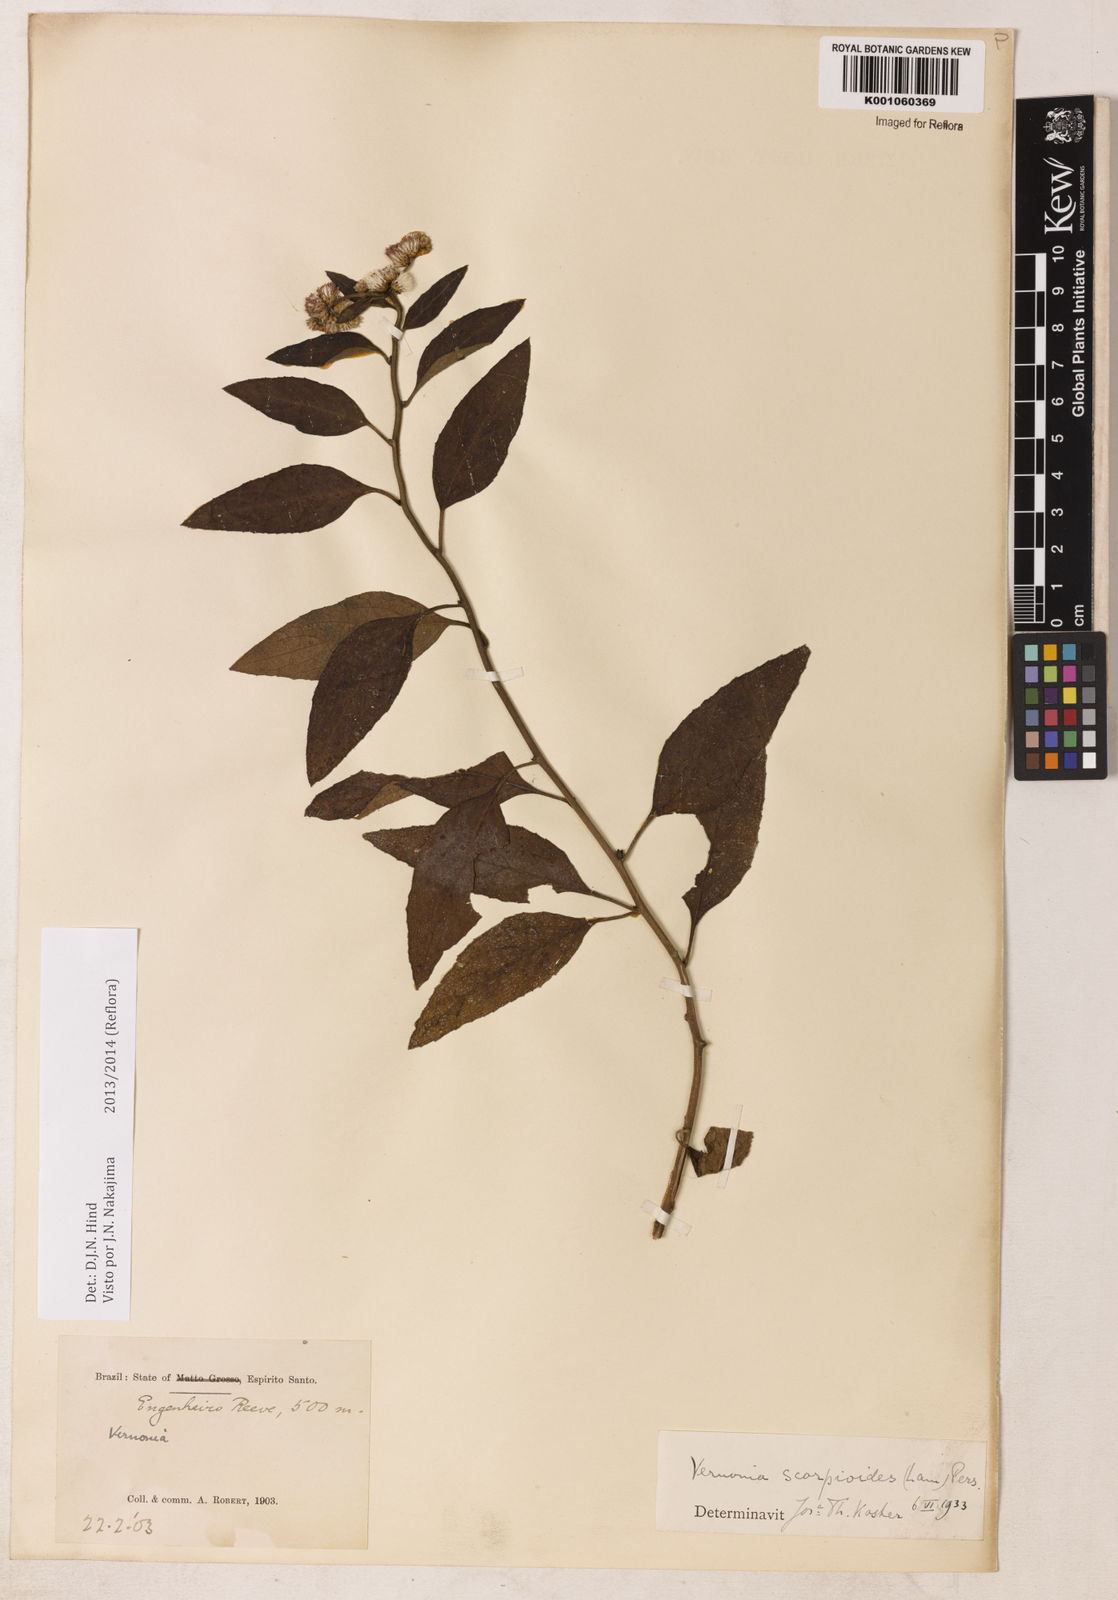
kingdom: Plantae
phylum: Tracheophyta
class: Magnoliopsida
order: Asterales
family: Asteraceae
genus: Cyrtocymura
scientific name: Cyrtocymura scorpioides
